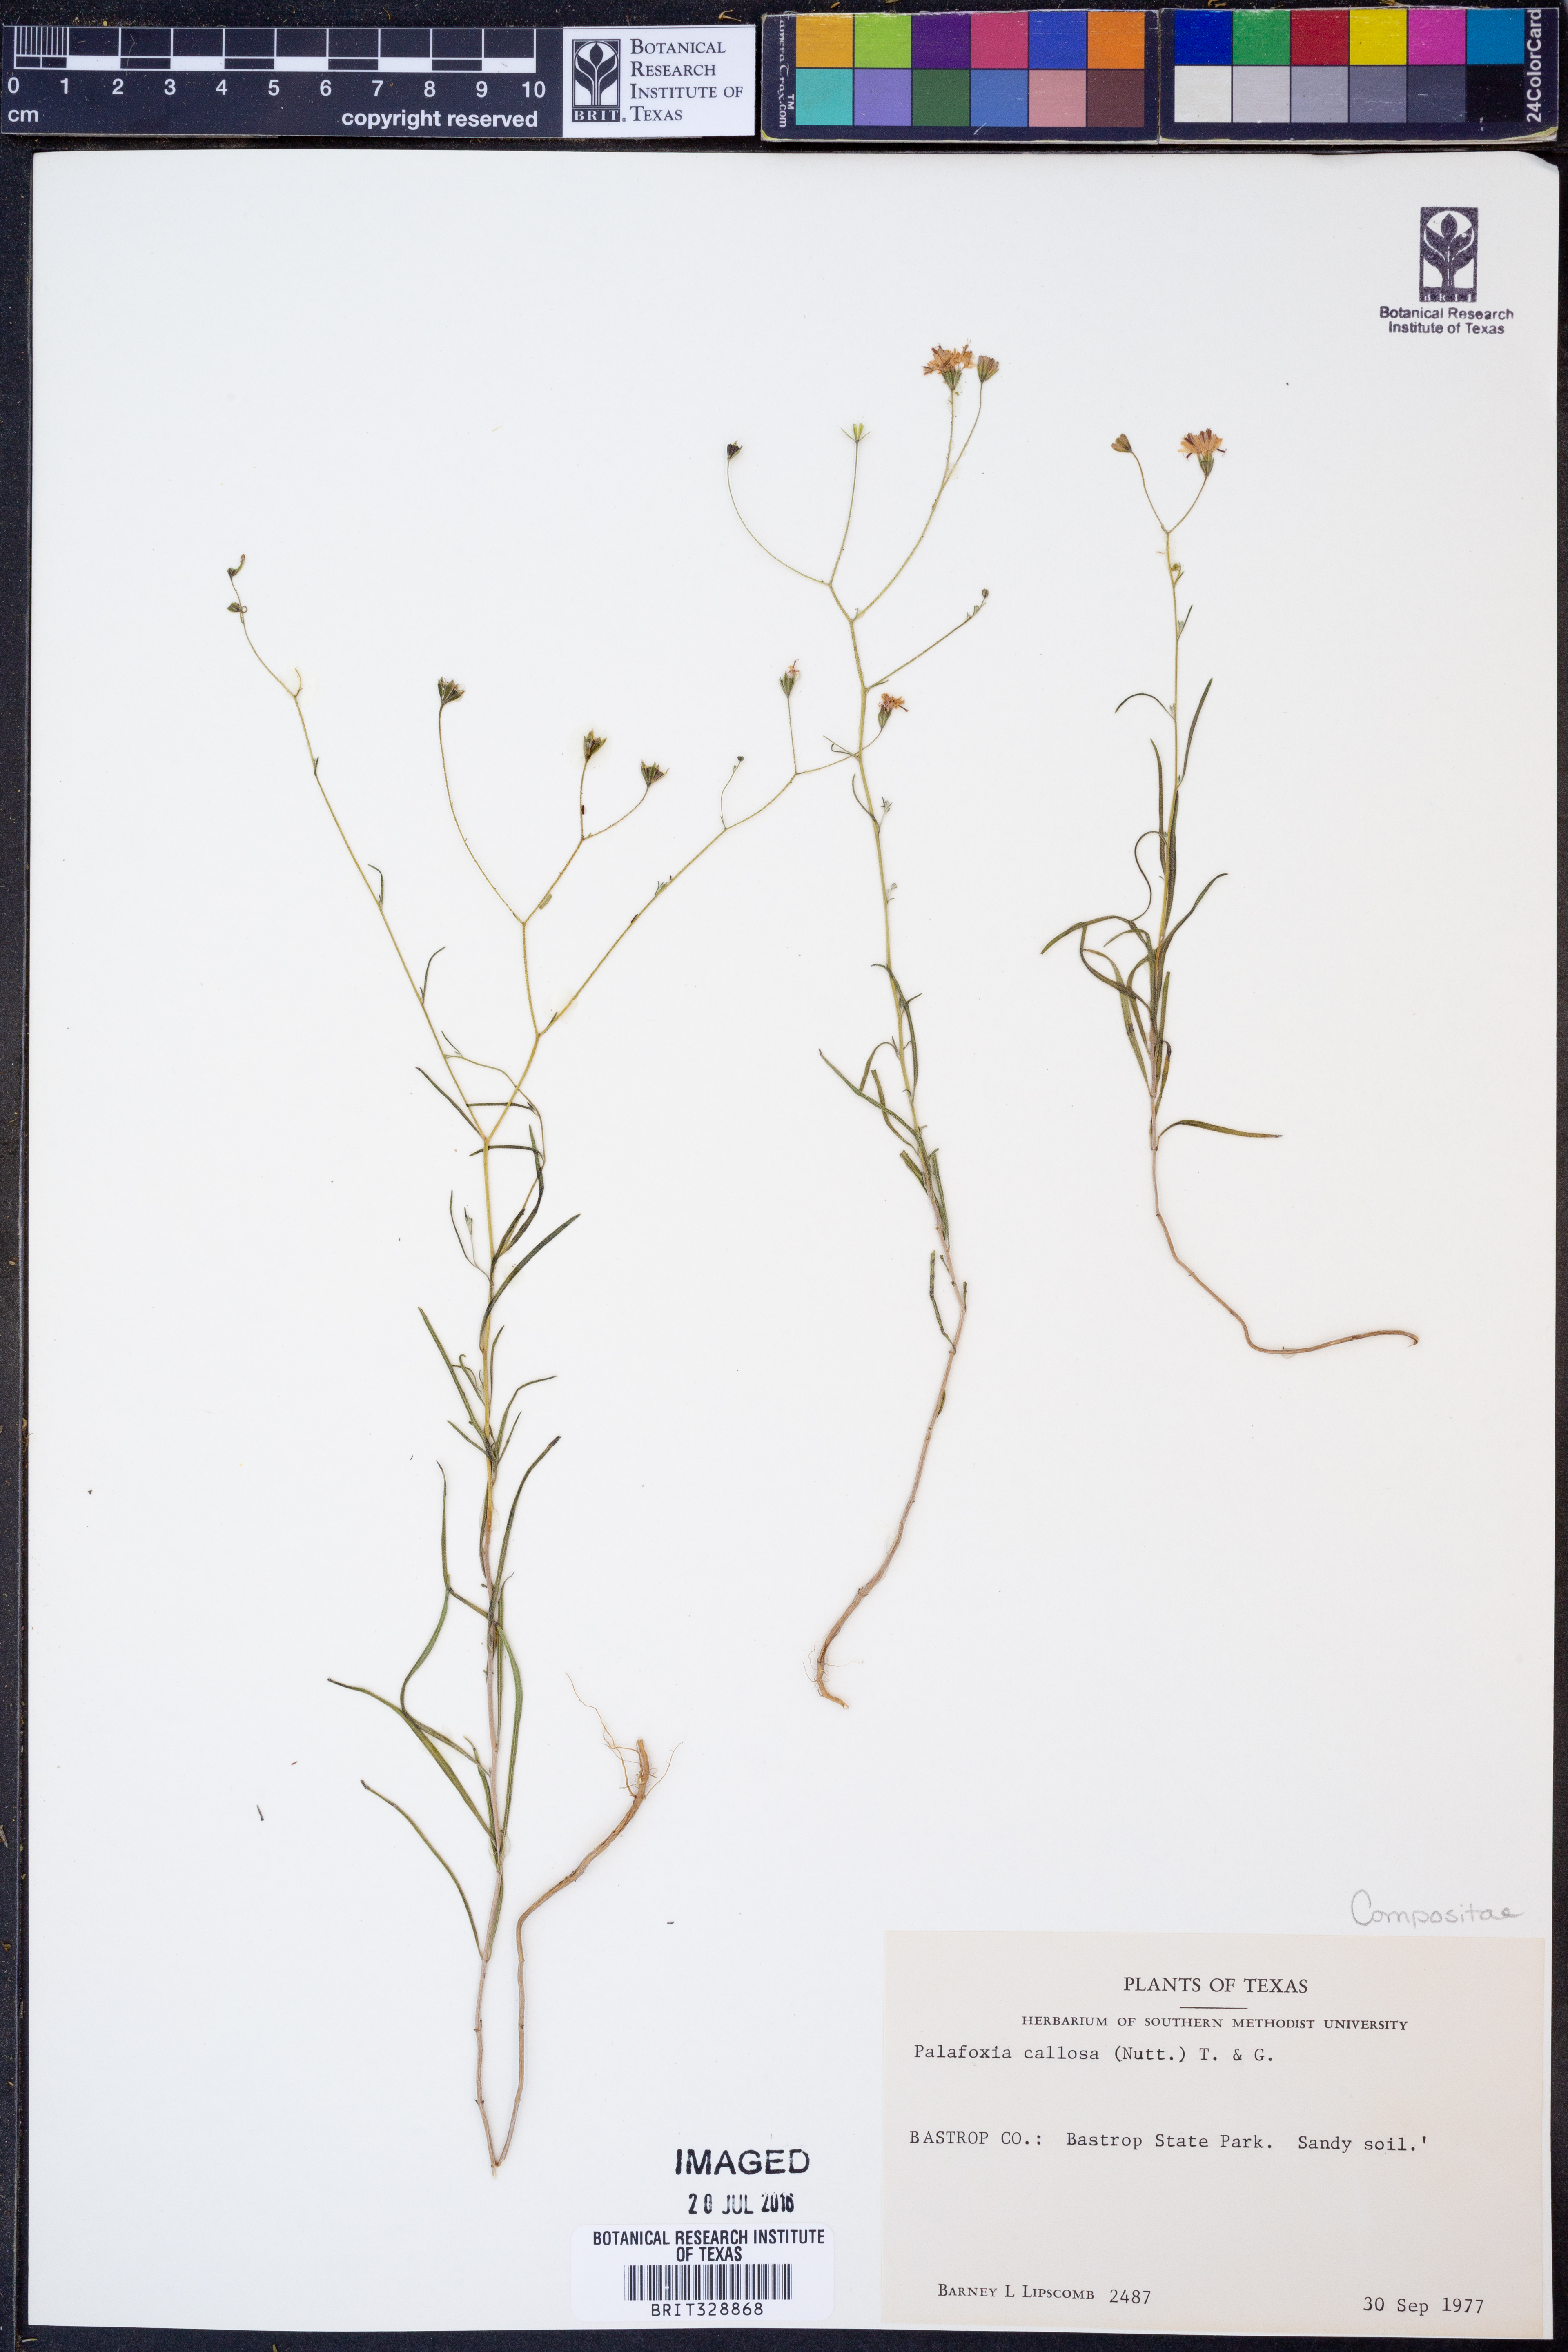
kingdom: Plantae
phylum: Tracheophyta
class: Magnoliopsida
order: Asterales
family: Asteraceae
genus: Palafoxia
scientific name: Palafoxia callosa
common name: Small palafox
